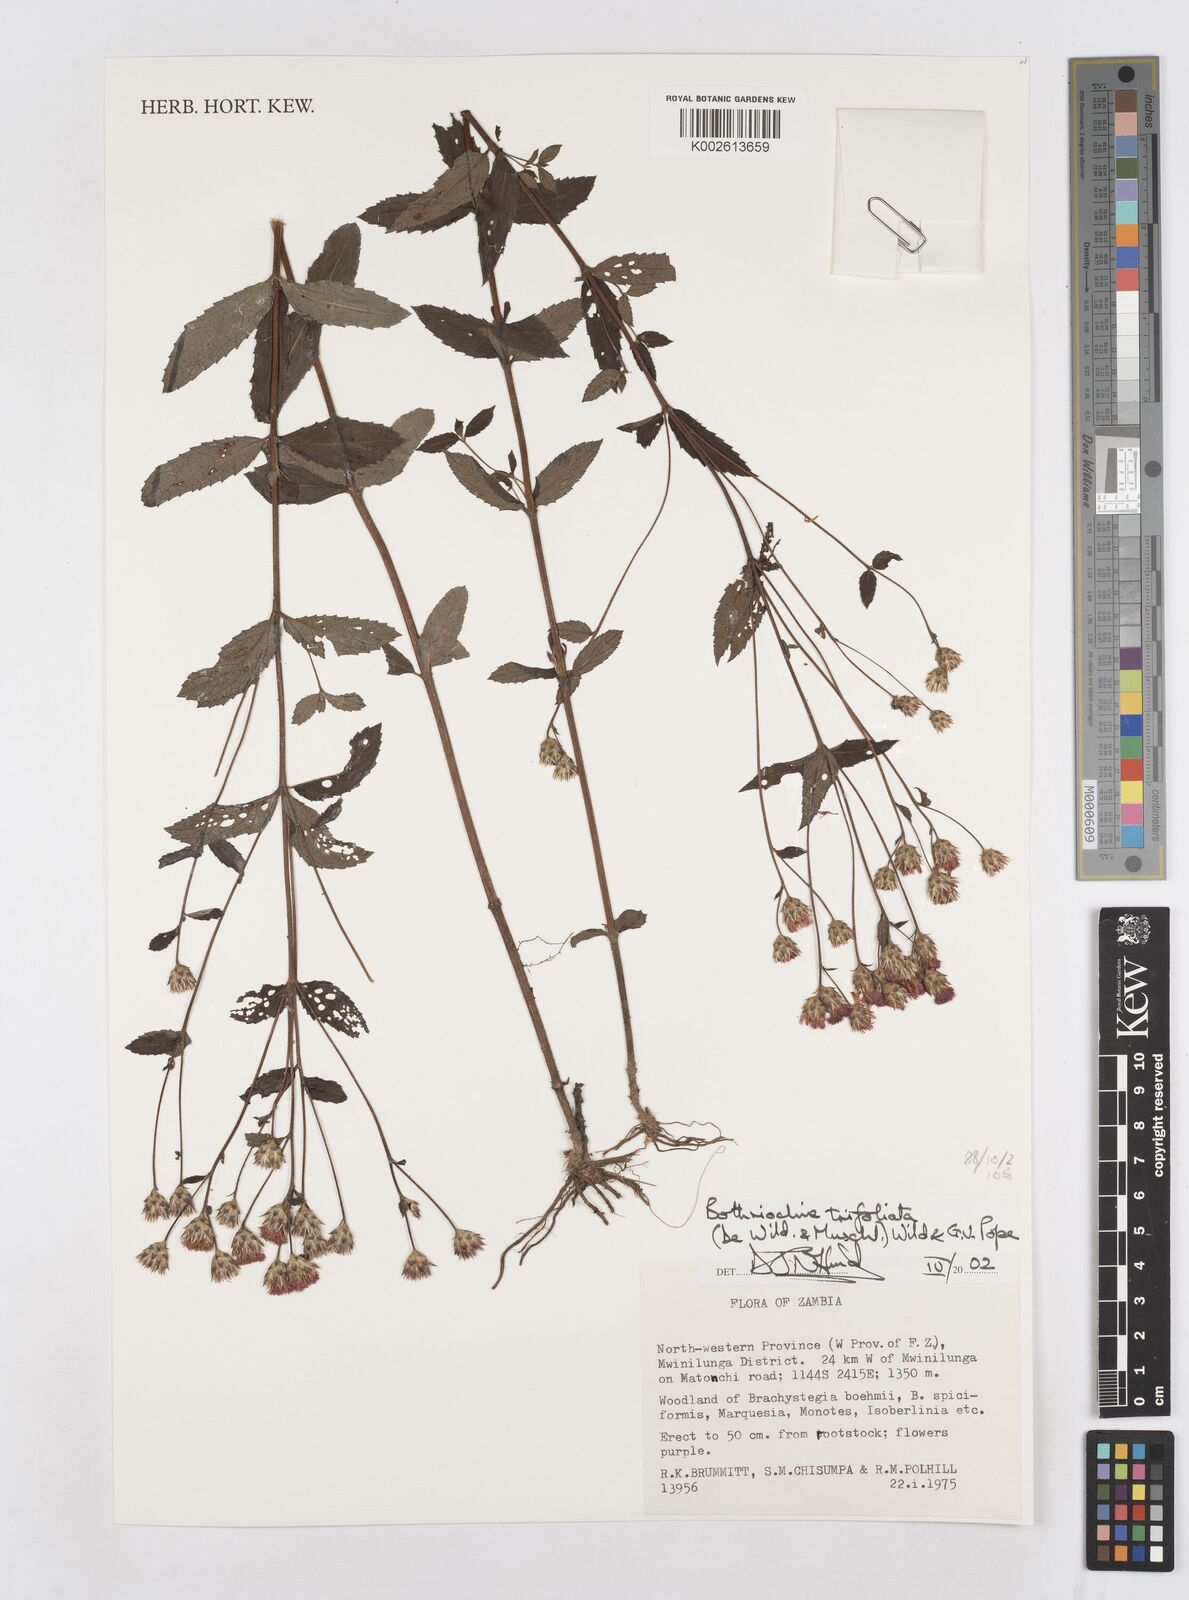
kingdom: Plantae
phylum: Tracheophyta
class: Magnoliopsida
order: Asterales
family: Asteraceae
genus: Bothriocline
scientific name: Bothriocline trifoliata
